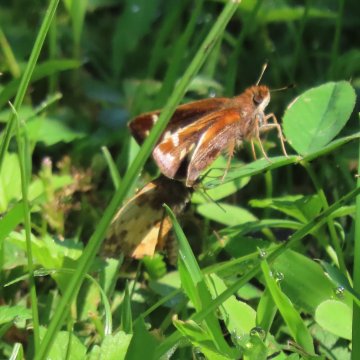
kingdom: Animalia
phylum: Arthropoda
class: Insecta
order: Lepidoptera
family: Hesperiidae
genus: Lon
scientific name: Lon zabulon
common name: Zabulon Skipper
